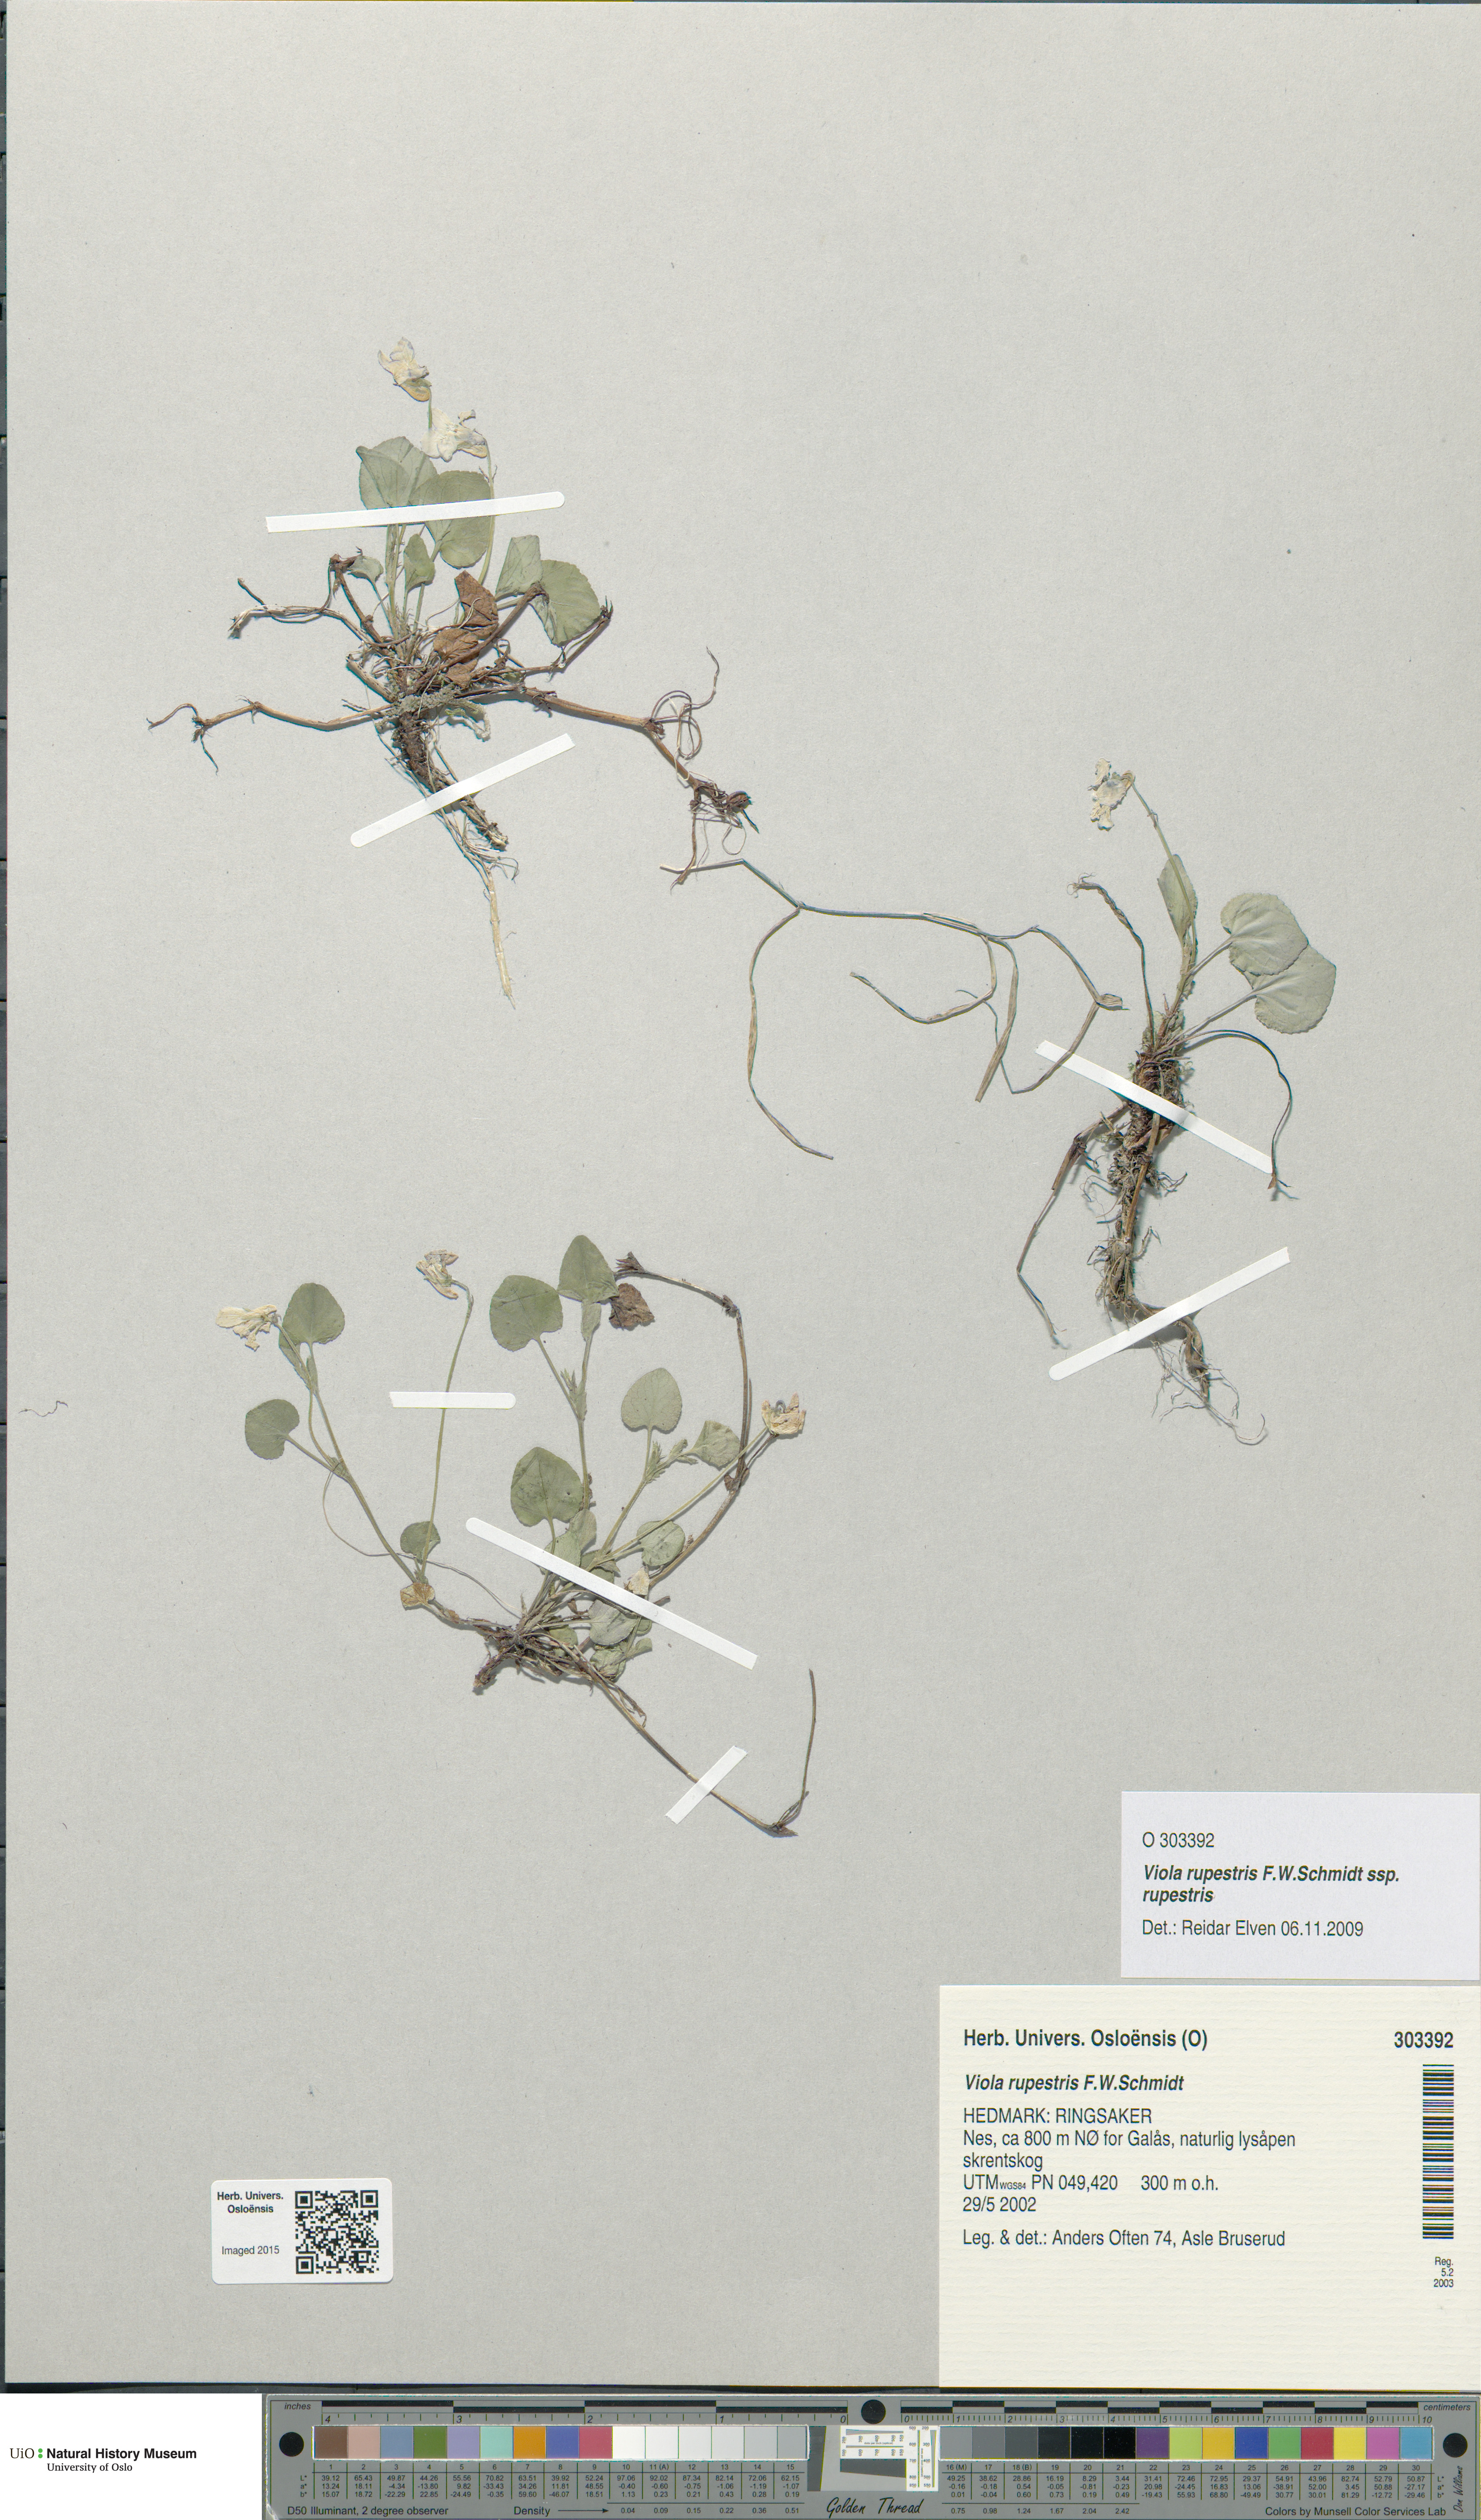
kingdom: Plantae
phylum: Tracheophyta
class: Magnoliopsida
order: Malpighiales
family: Violaceae
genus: Viola
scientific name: Viola rupestris
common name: Teesdale violet
